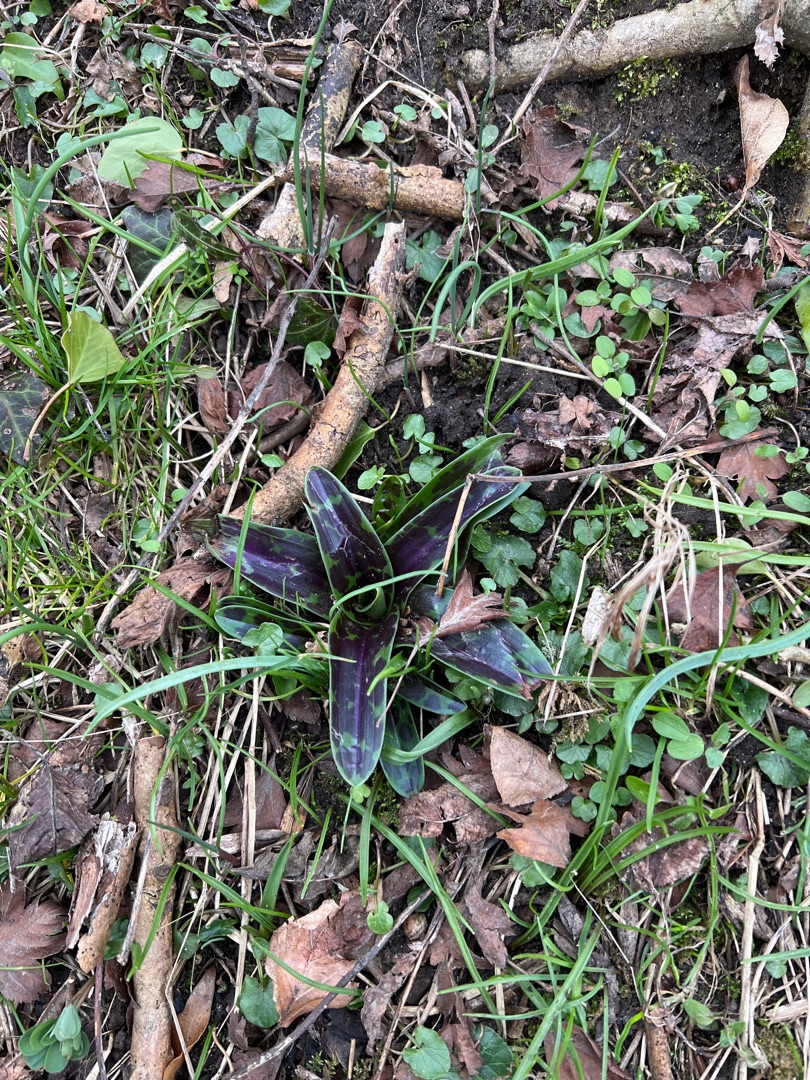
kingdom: Plantae
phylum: Tracheophyta
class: Liliopsida
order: Asparagales
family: Orchidaceae
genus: Orchis
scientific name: Orchis mascula
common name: Tyndakset gøgeurt
